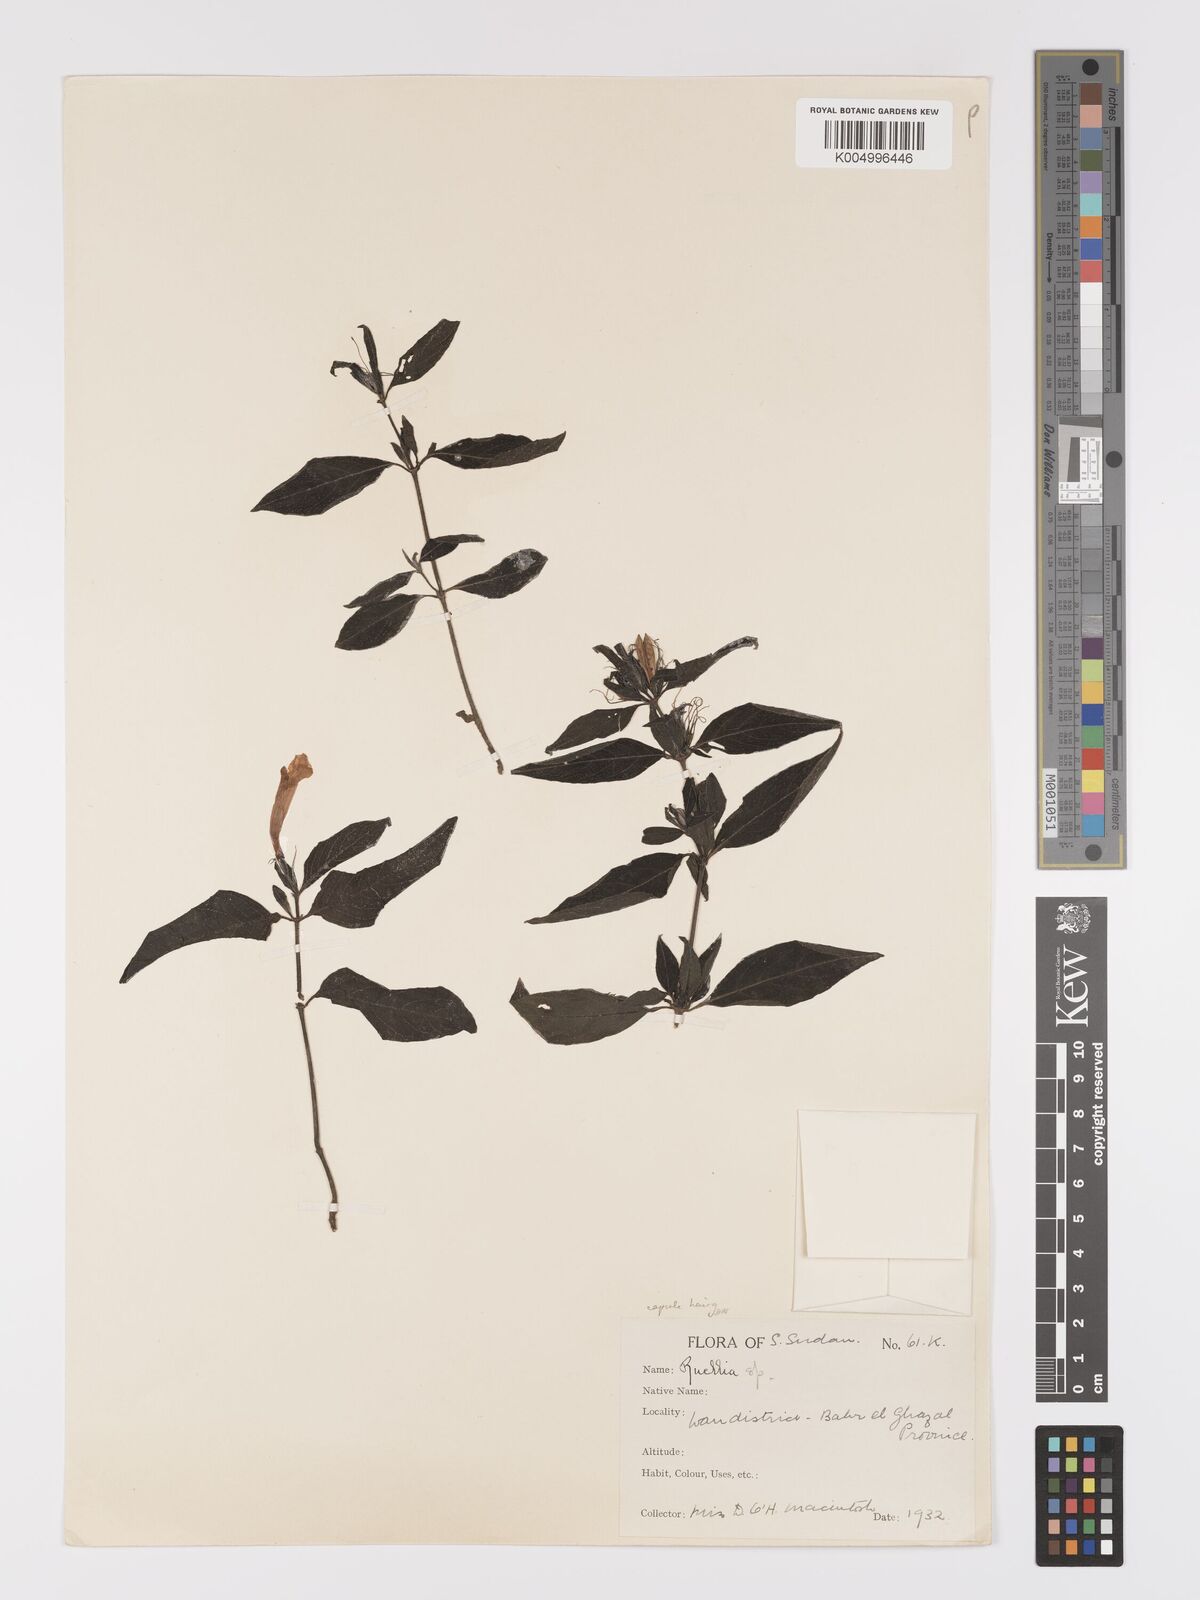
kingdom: Plantae
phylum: Tracheophyta
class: Magnoliopsida
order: Lamiales
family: Acanthaceae
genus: Ruellia
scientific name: Ruellia
